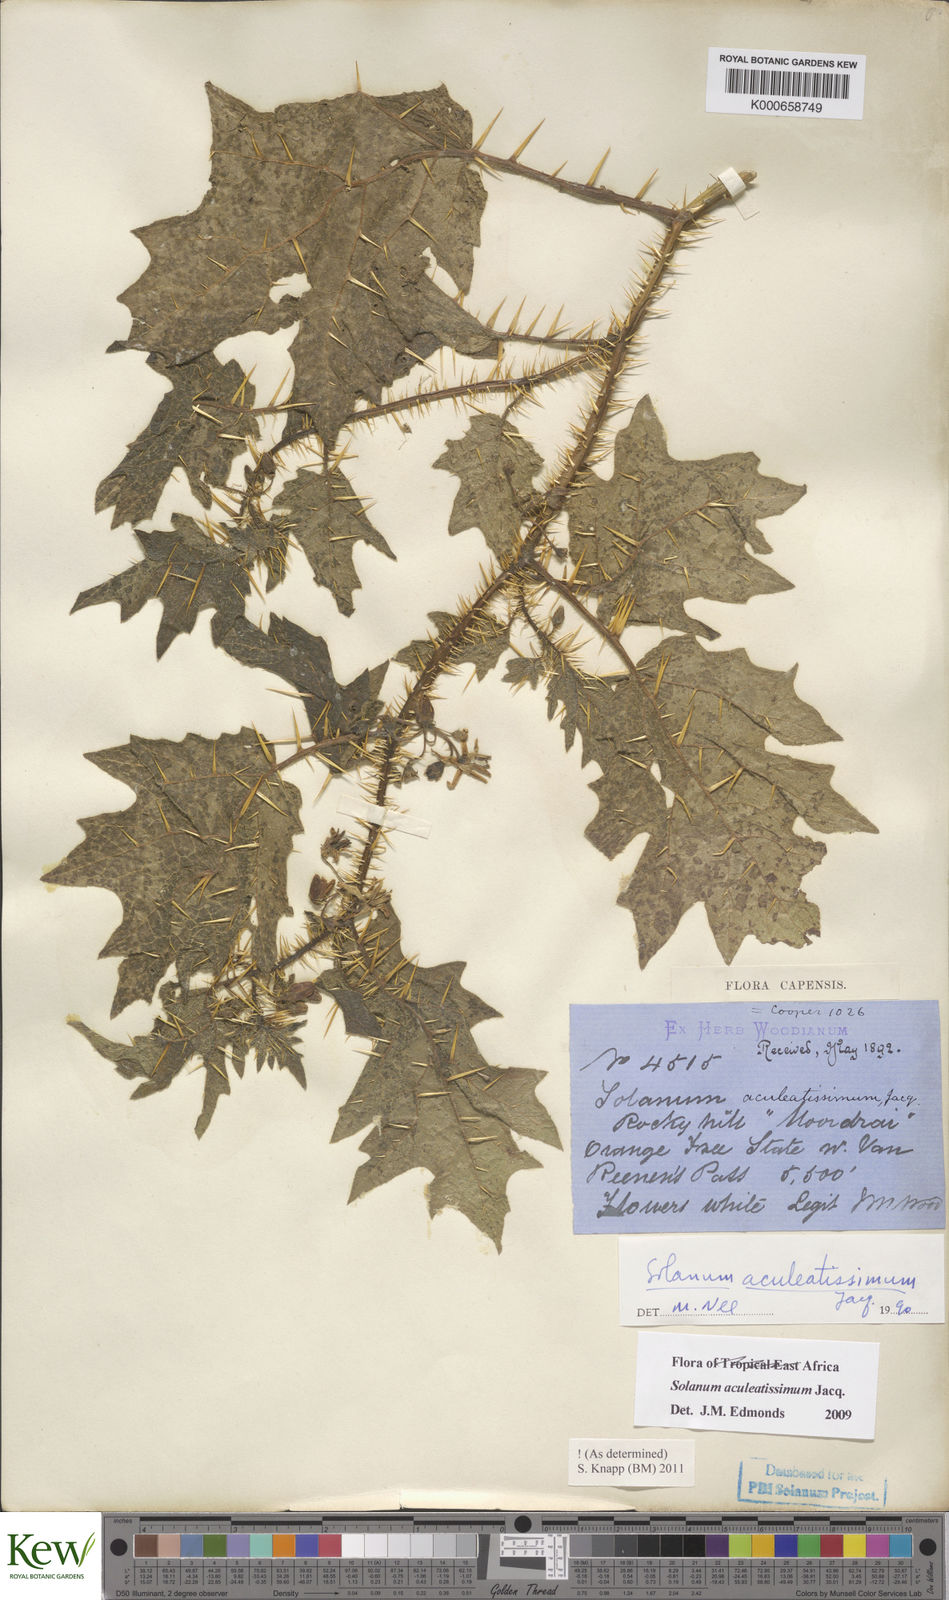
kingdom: Plantae
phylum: Tracheophyta
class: Magnoliopsida
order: Solanales
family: Solanaceae
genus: Solanum
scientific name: Solanum aculeatissimum
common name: Dutch eggplant
